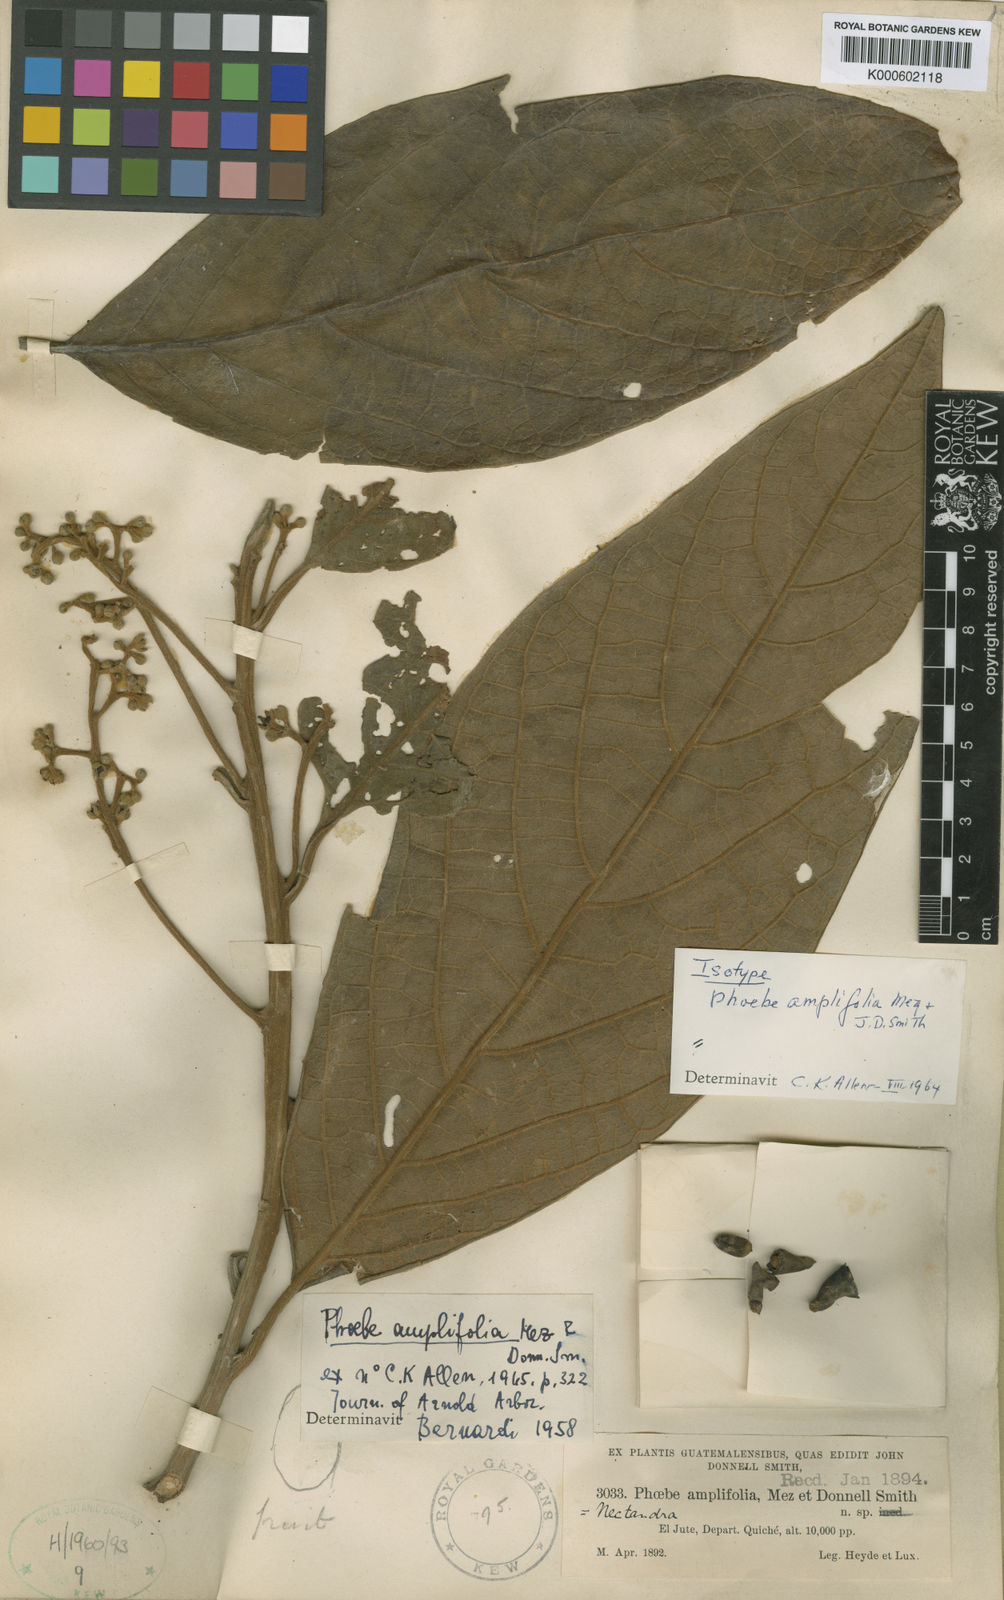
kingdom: Plantae
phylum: Tracheophyta
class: Magnoliopsida
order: Laurales
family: Lauraceae
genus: Ocotea
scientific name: Ocotea amplifolia
